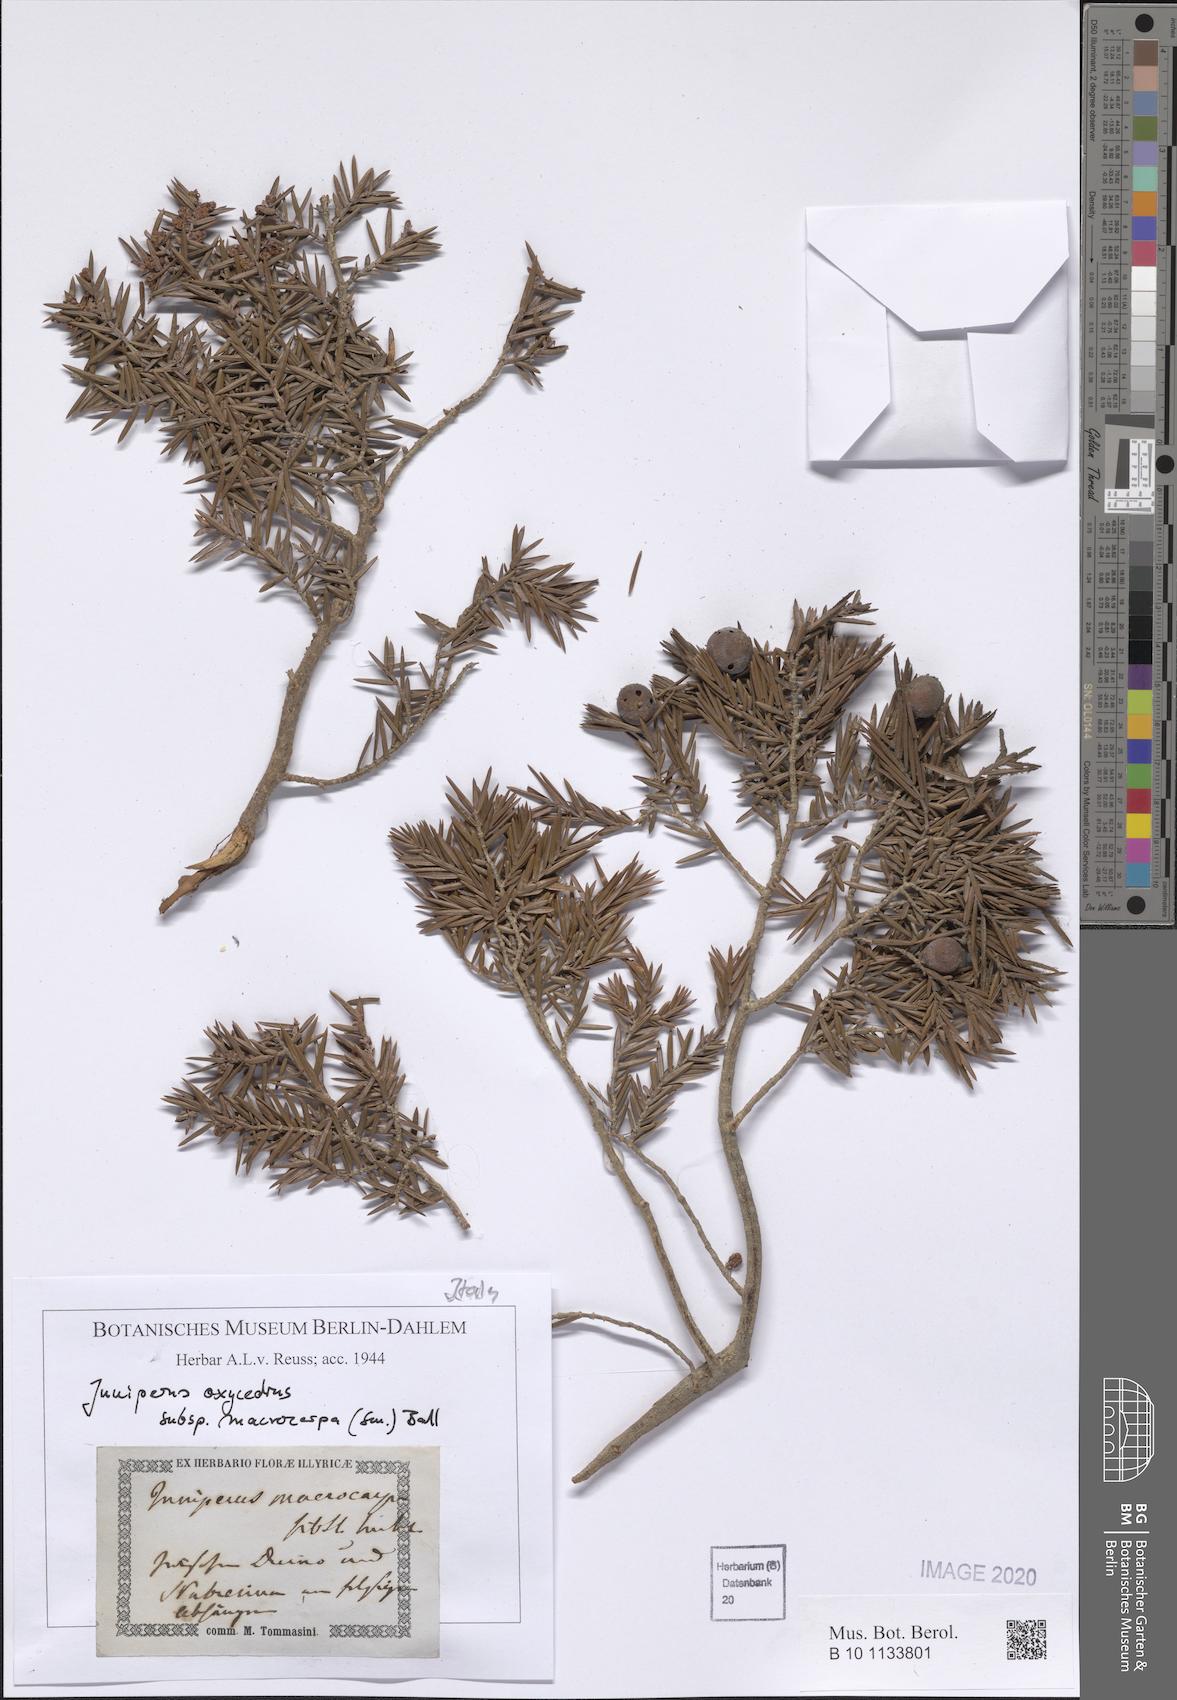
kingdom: Plantae
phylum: Tracheophyta
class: Pinopsida
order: Pinales
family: Cupressaceae
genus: Juniperus
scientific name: Juniperus oxycedrus
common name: Prickly juniper
